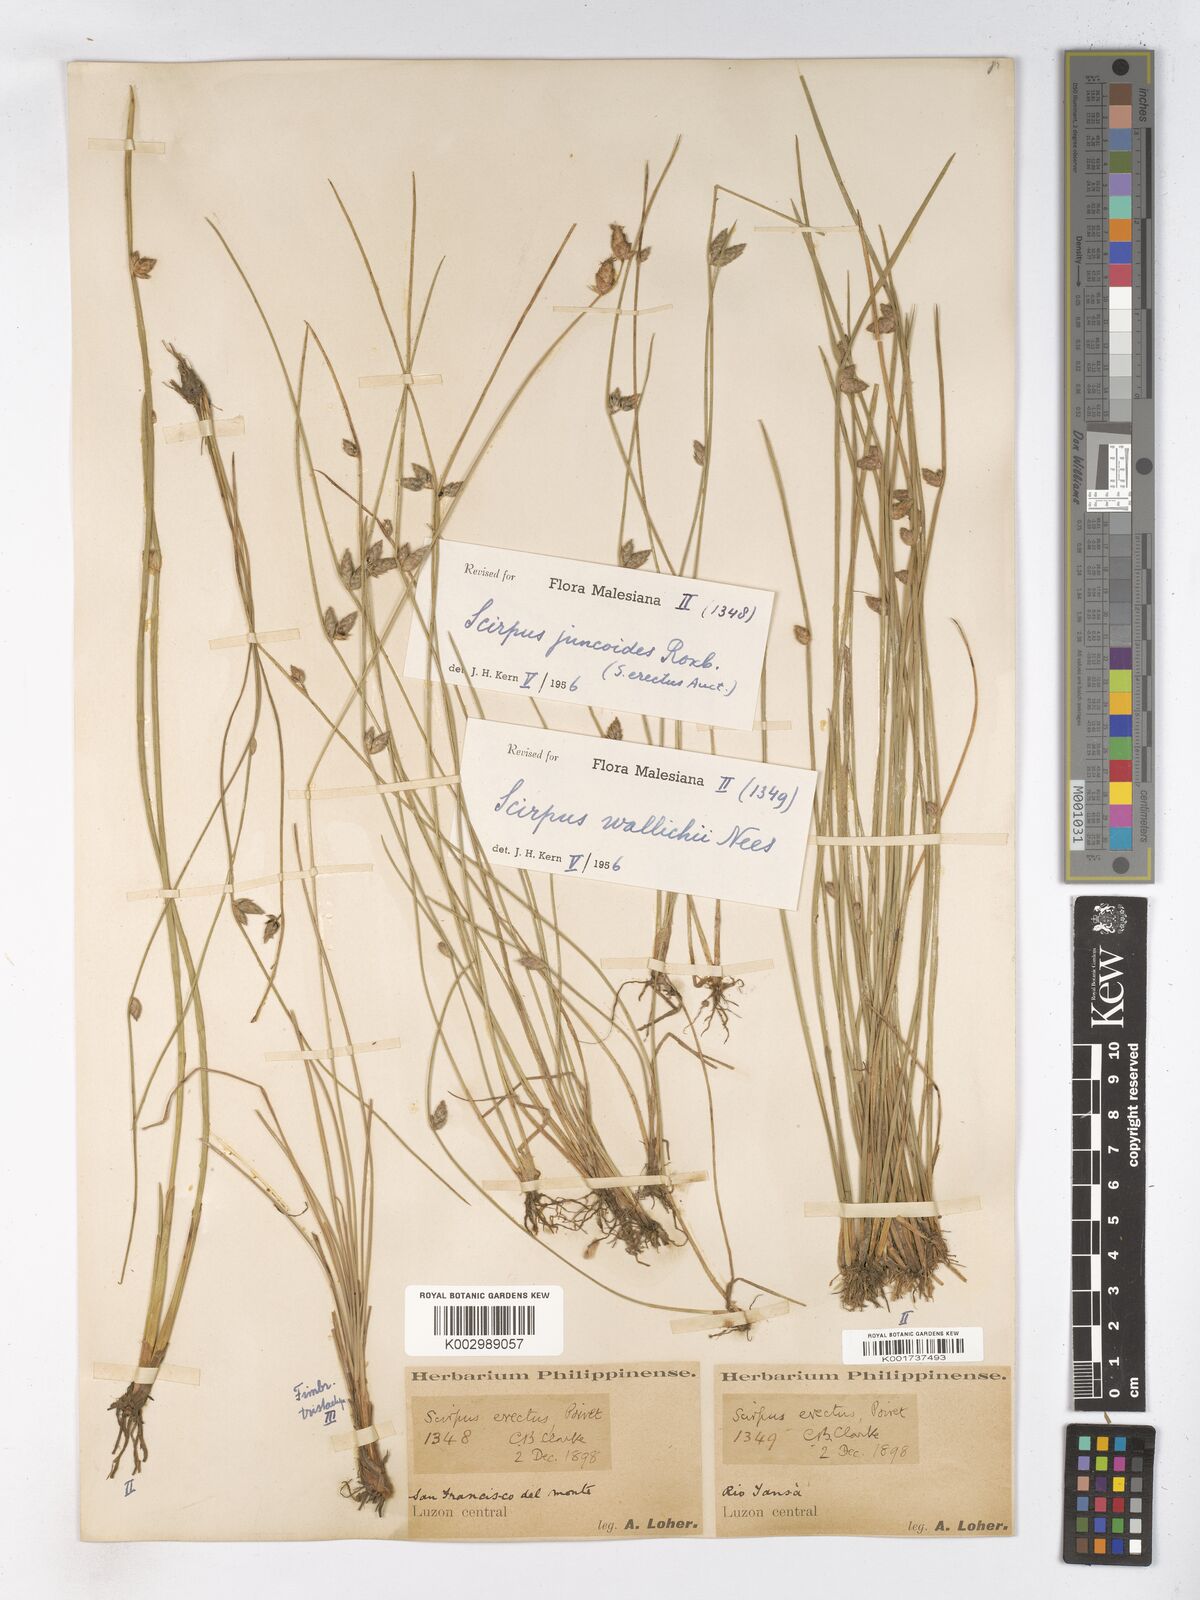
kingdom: Plantae
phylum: Tracheophyta
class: Liliopsida
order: Poales
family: Cyperaceae
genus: Schoenoplectiella
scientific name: Schoenoplectiella juncoides
